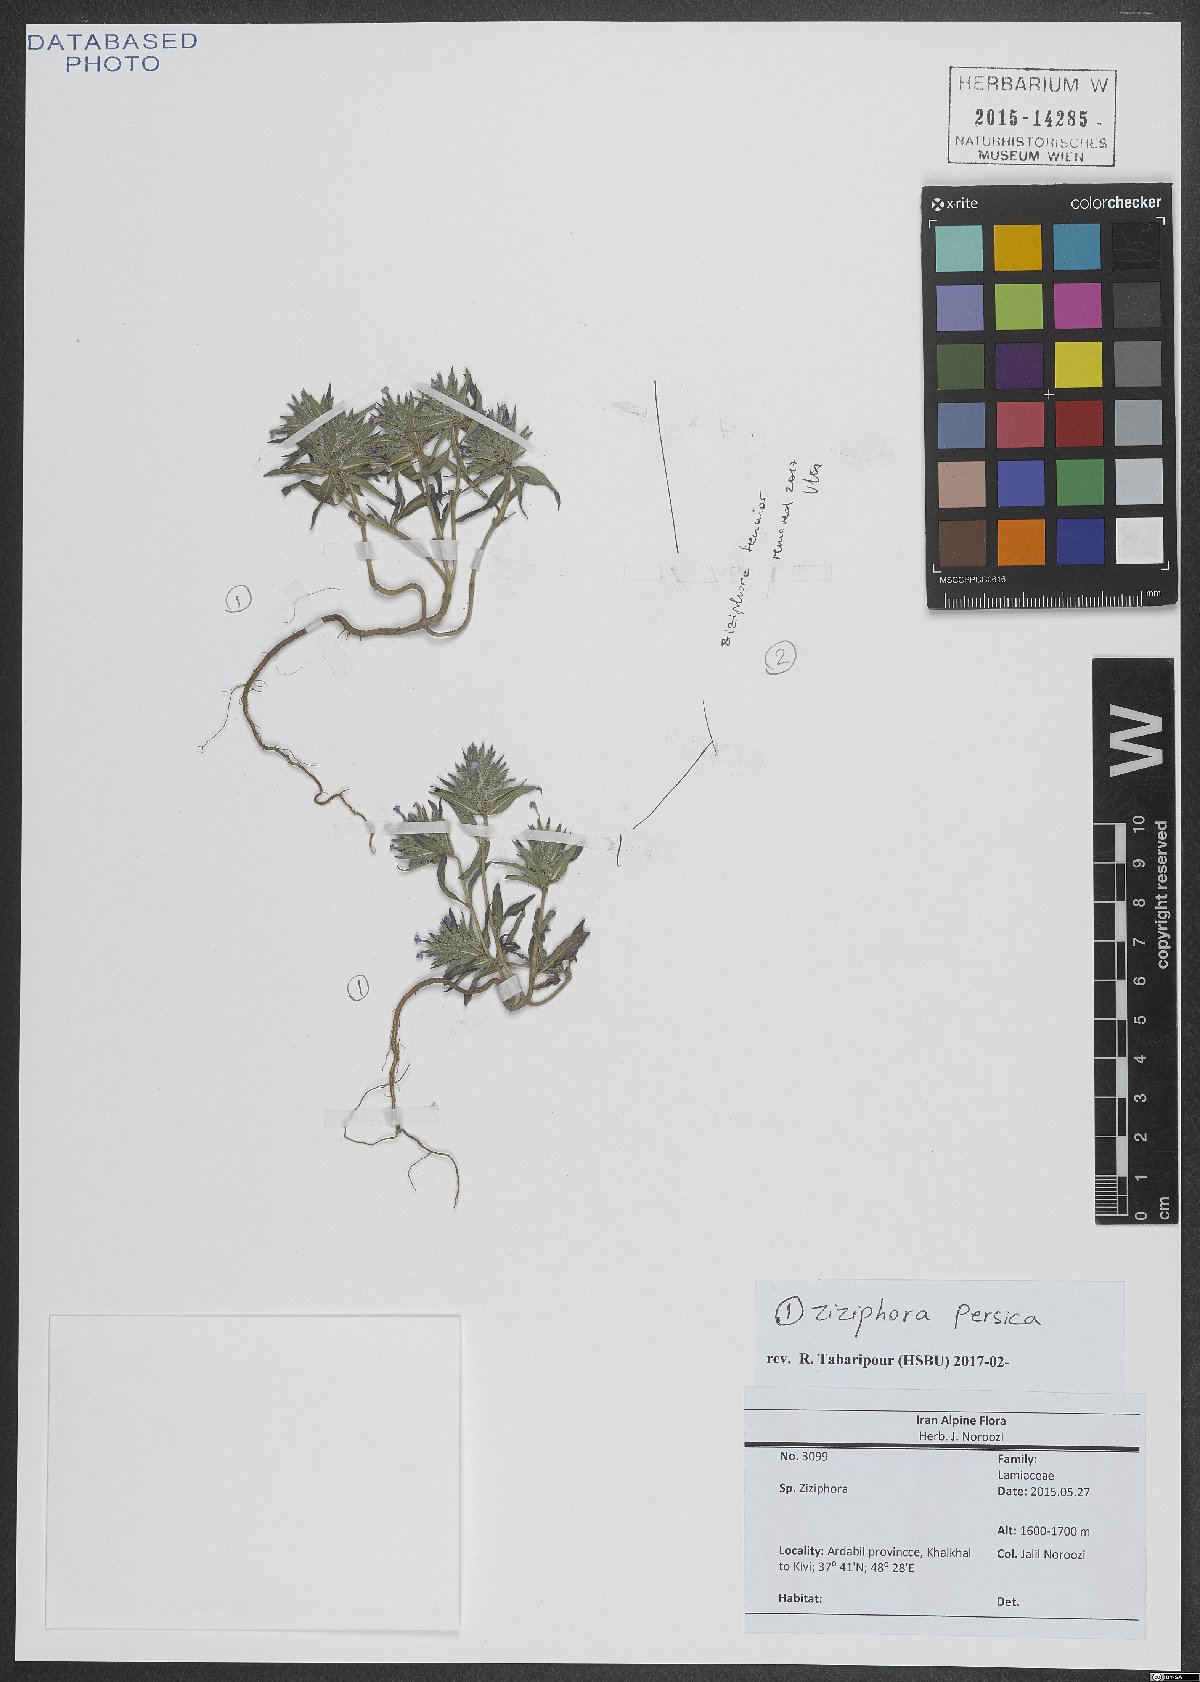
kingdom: Plantae
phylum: Tracheophyta
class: Magnoliopsida
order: Lamiales
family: Lamiaceae
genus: Ziziphora
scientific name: Ziziphora persica
